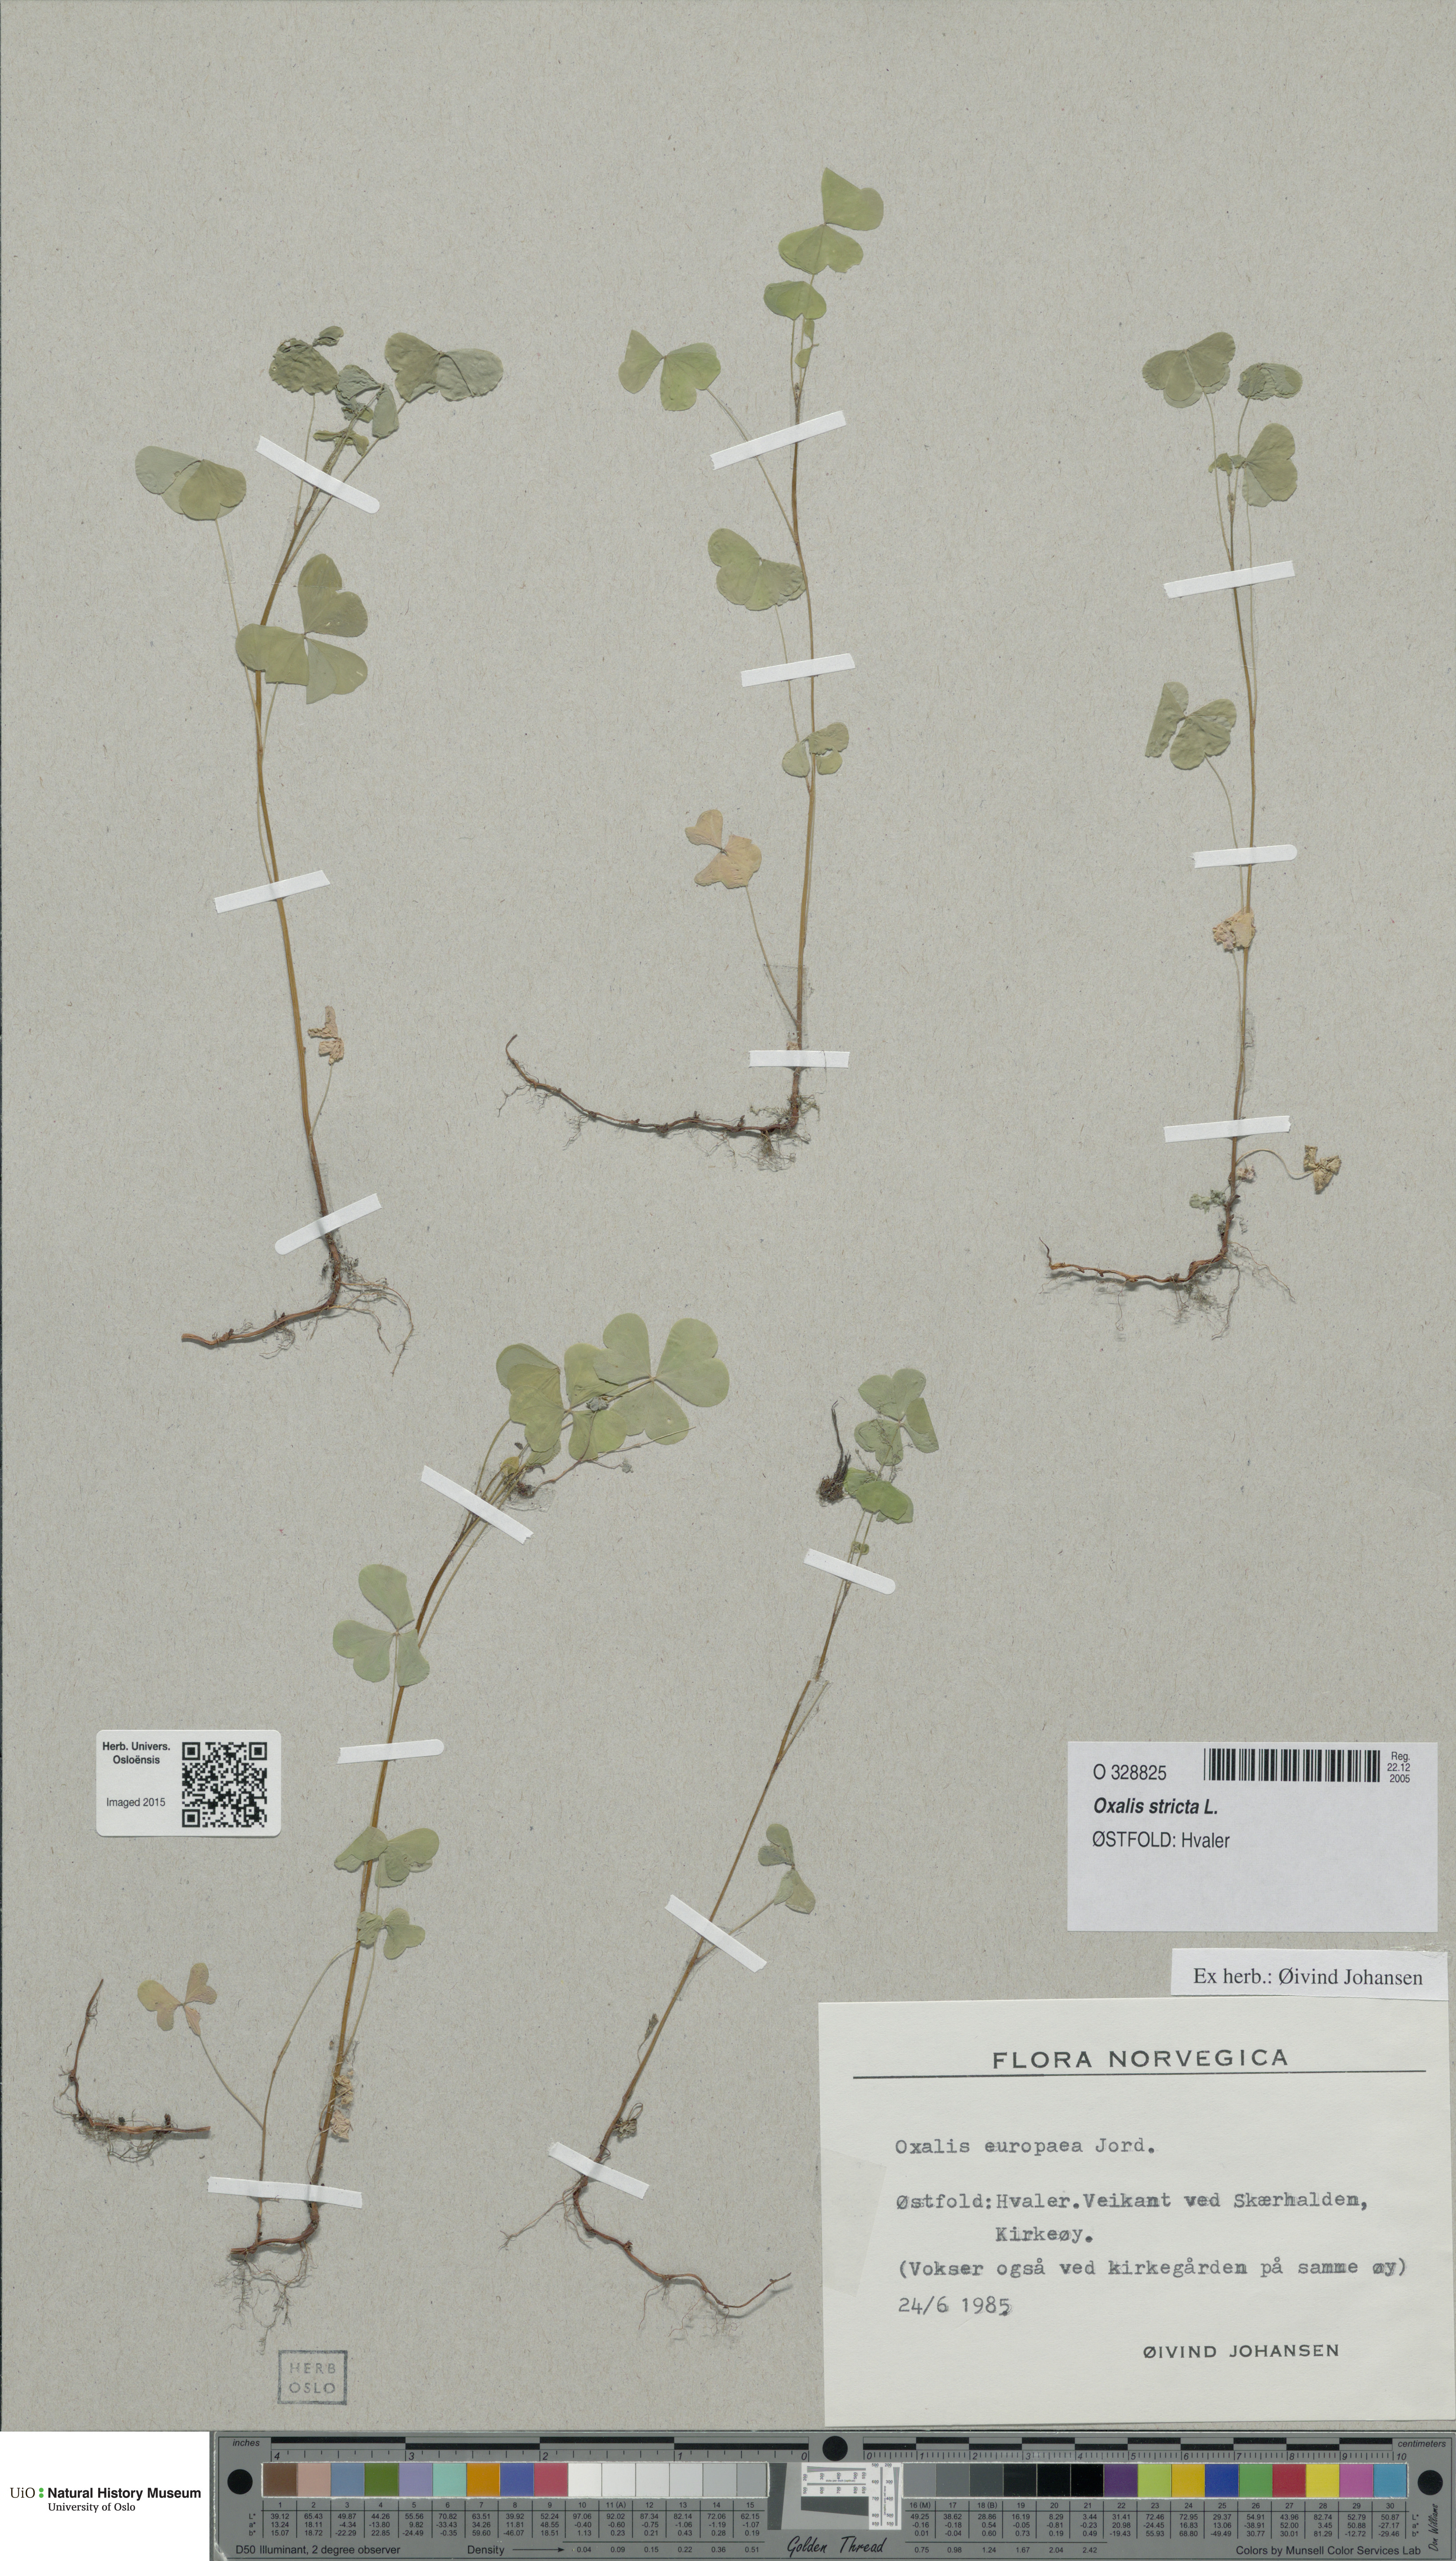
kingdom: Plantae
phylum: Tracheophyta
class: Magnoliopsida
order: Oxalidales
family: Oxalidaceae
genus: Oxalis
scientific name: Oxalis stricta
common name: Upright yellow-sorrel
